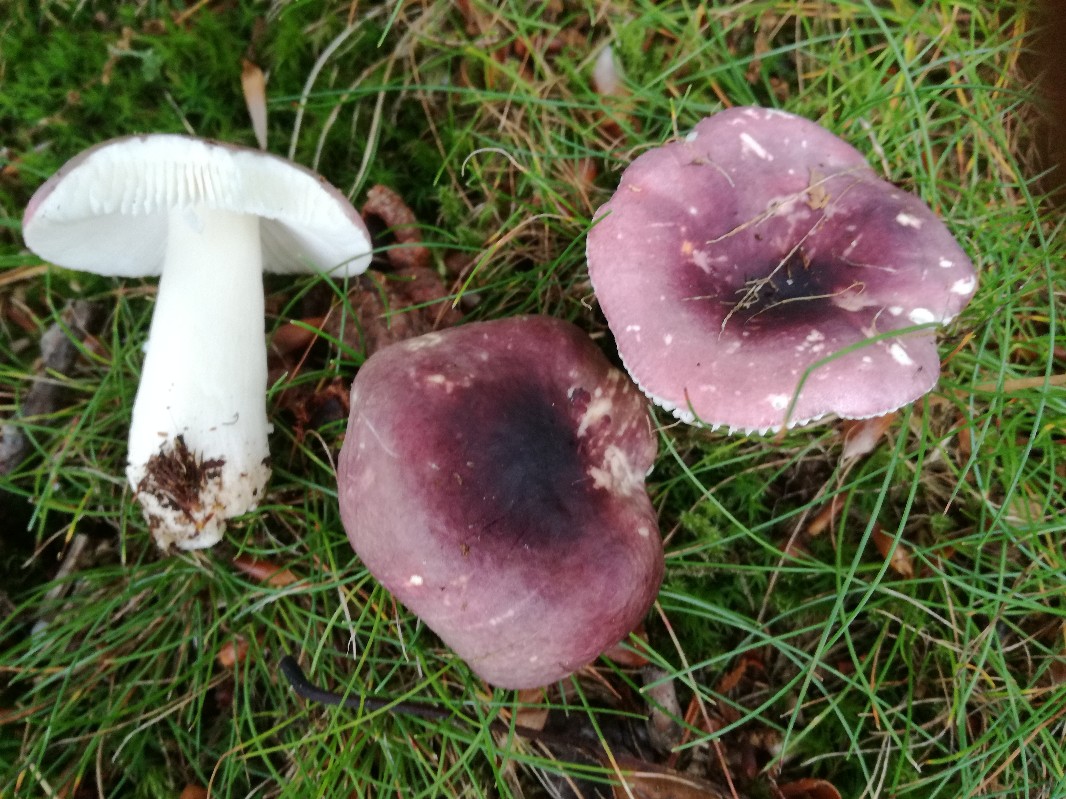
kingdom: Fungi
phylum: Basidiomycota
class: Agaricomycetes
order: Russulales
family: Russulaceae
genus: Russula
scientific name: Russula fragilis
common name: savbladet skørhat
